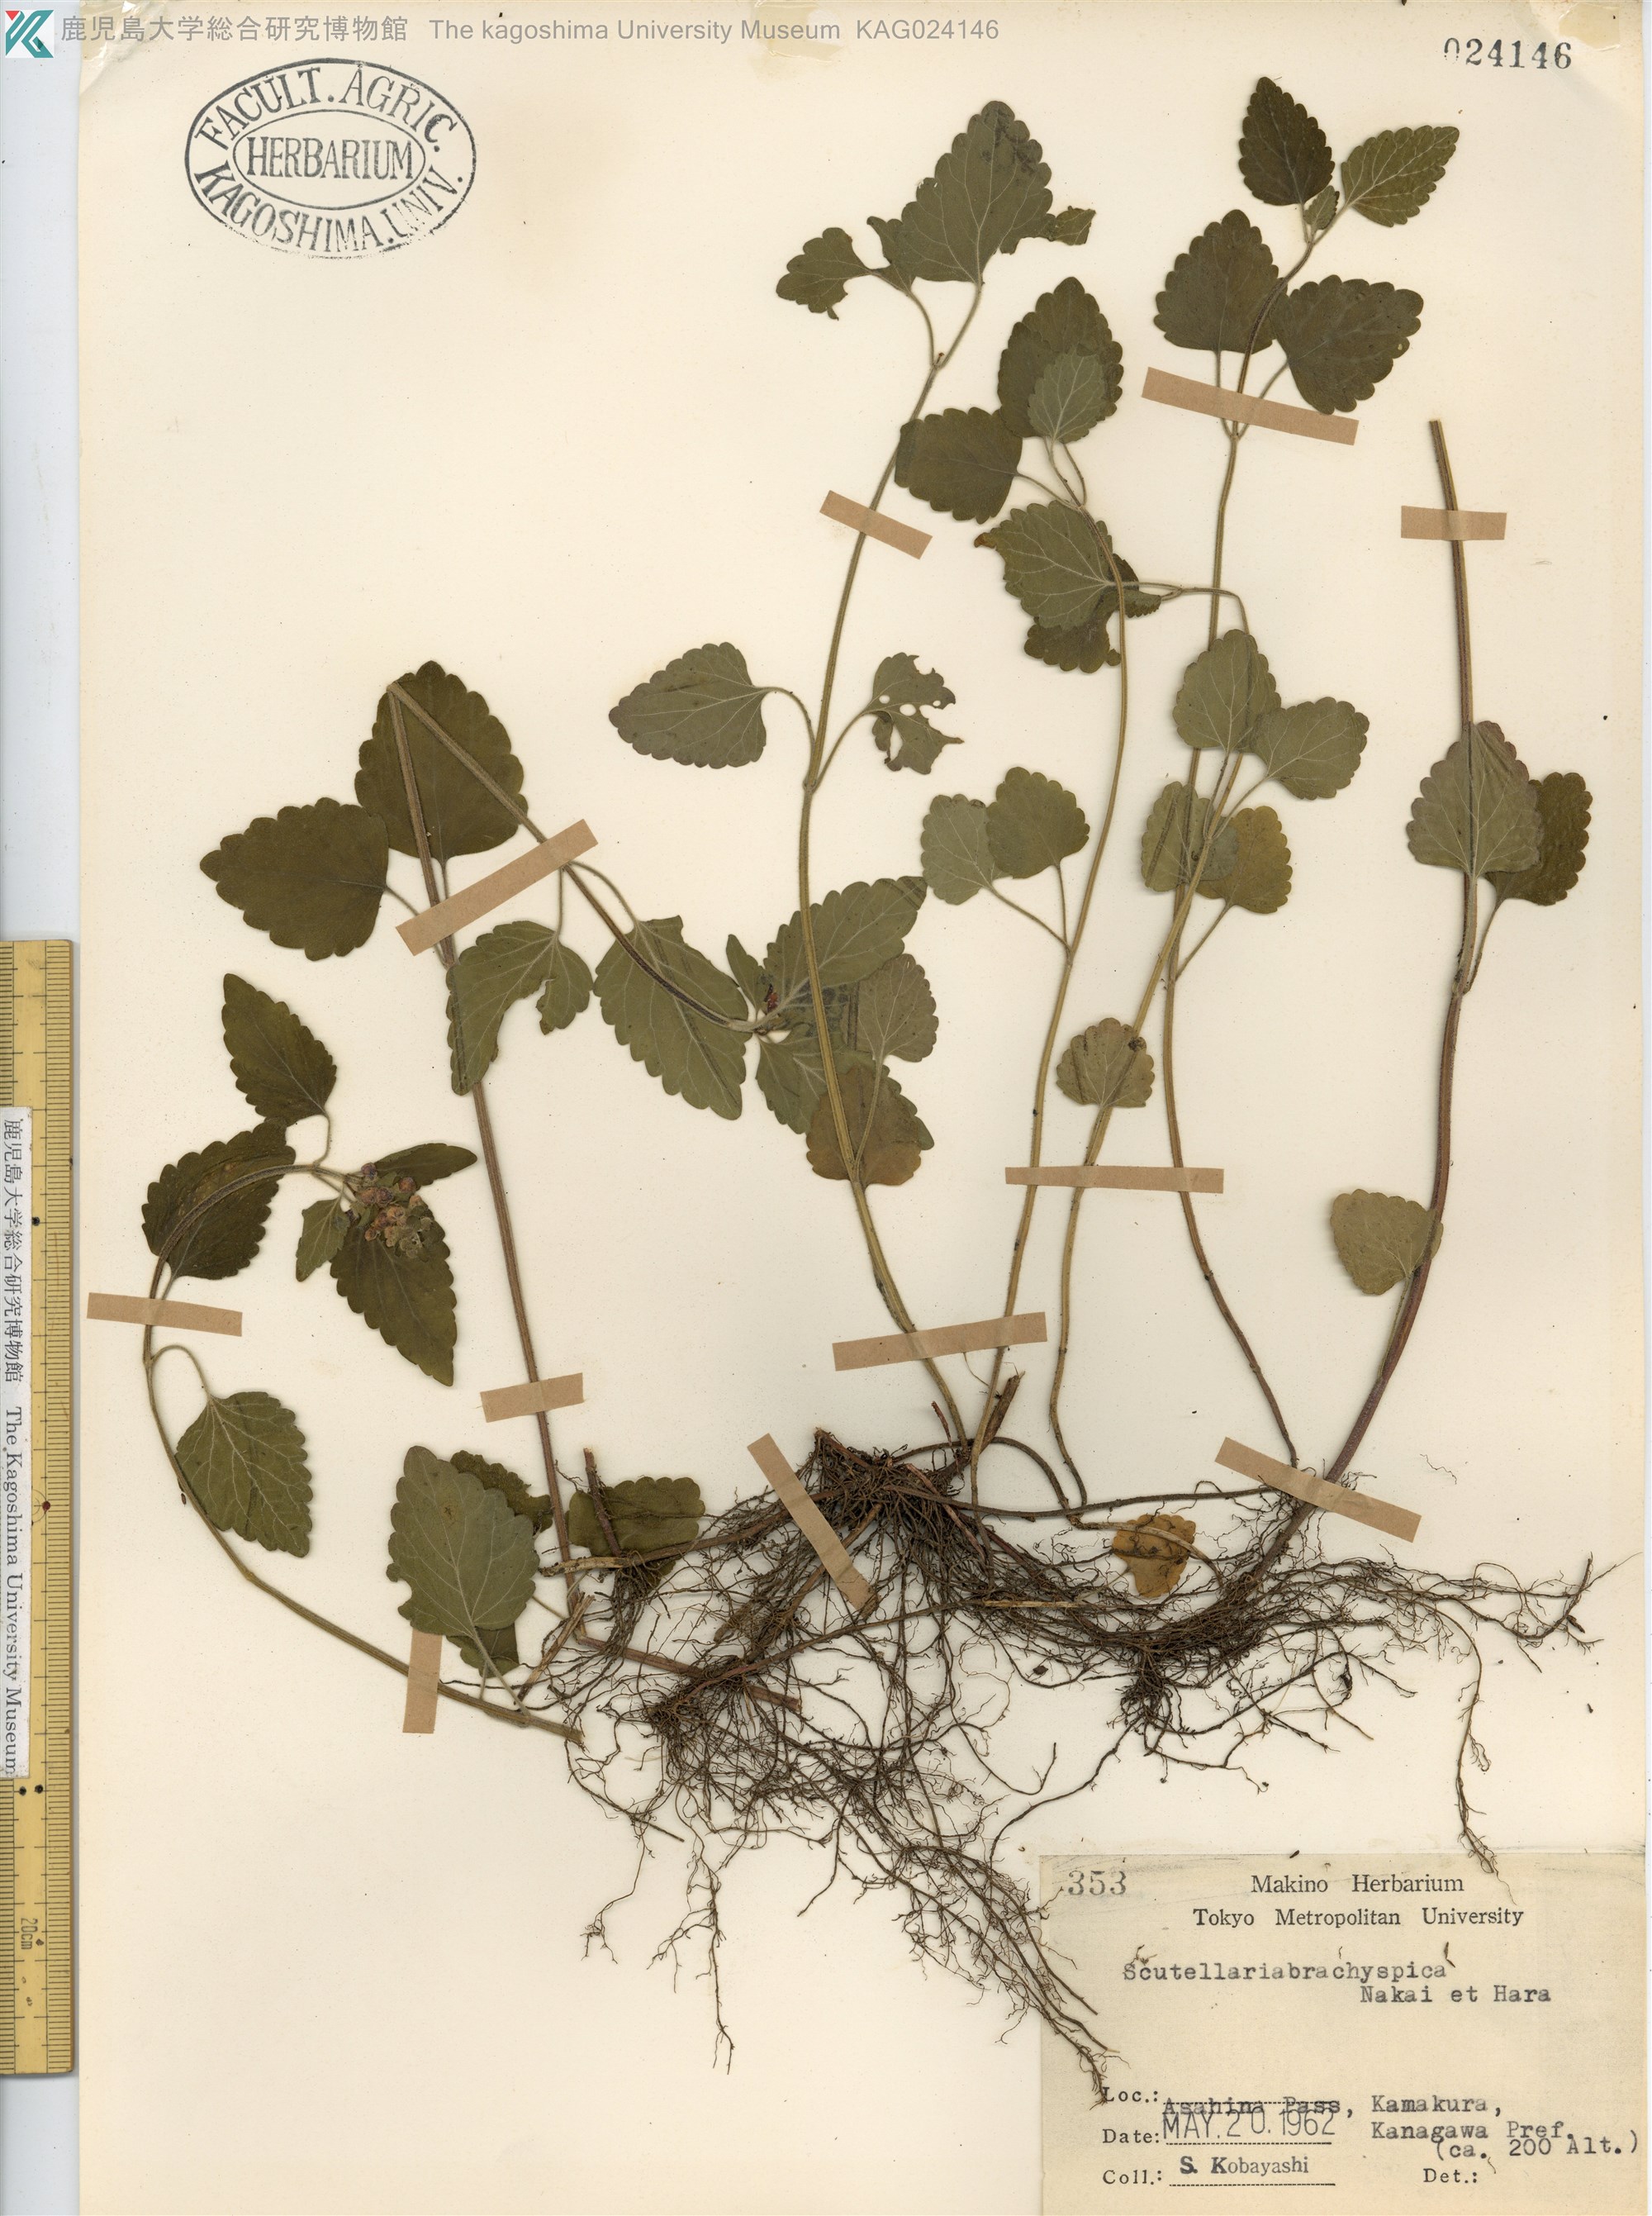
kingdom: Plantae
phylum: Tracheophyta
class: Magnoliopsida
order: Lamiales
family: Lamiaceae
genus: Scutellaria
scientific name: Scutellaria brachyspica
